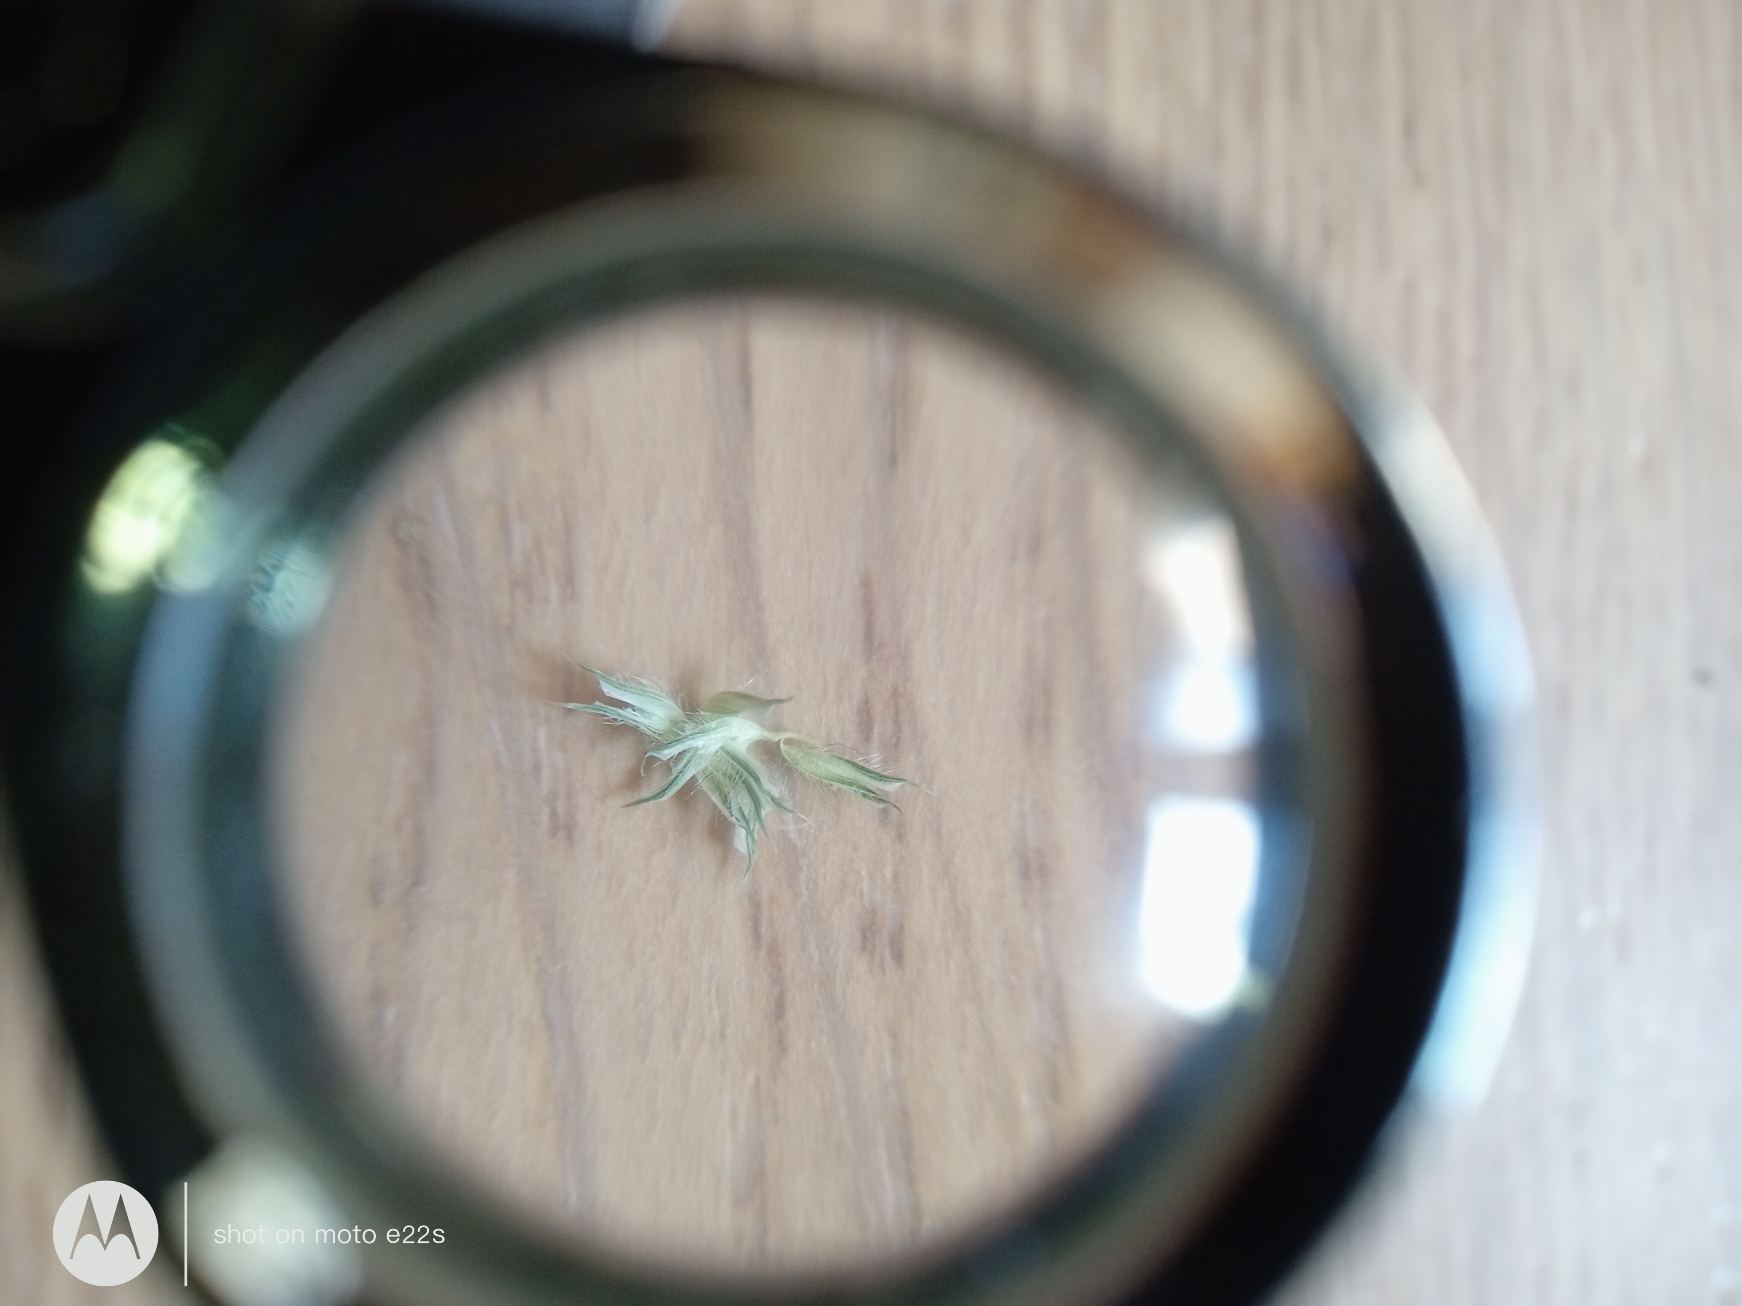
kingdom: Plantae
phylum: Tracheophyta
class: Liliopsida
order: Poales
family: Poaceae
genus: Phleum
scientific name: Phleum pratense
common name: Eng-rottehale
